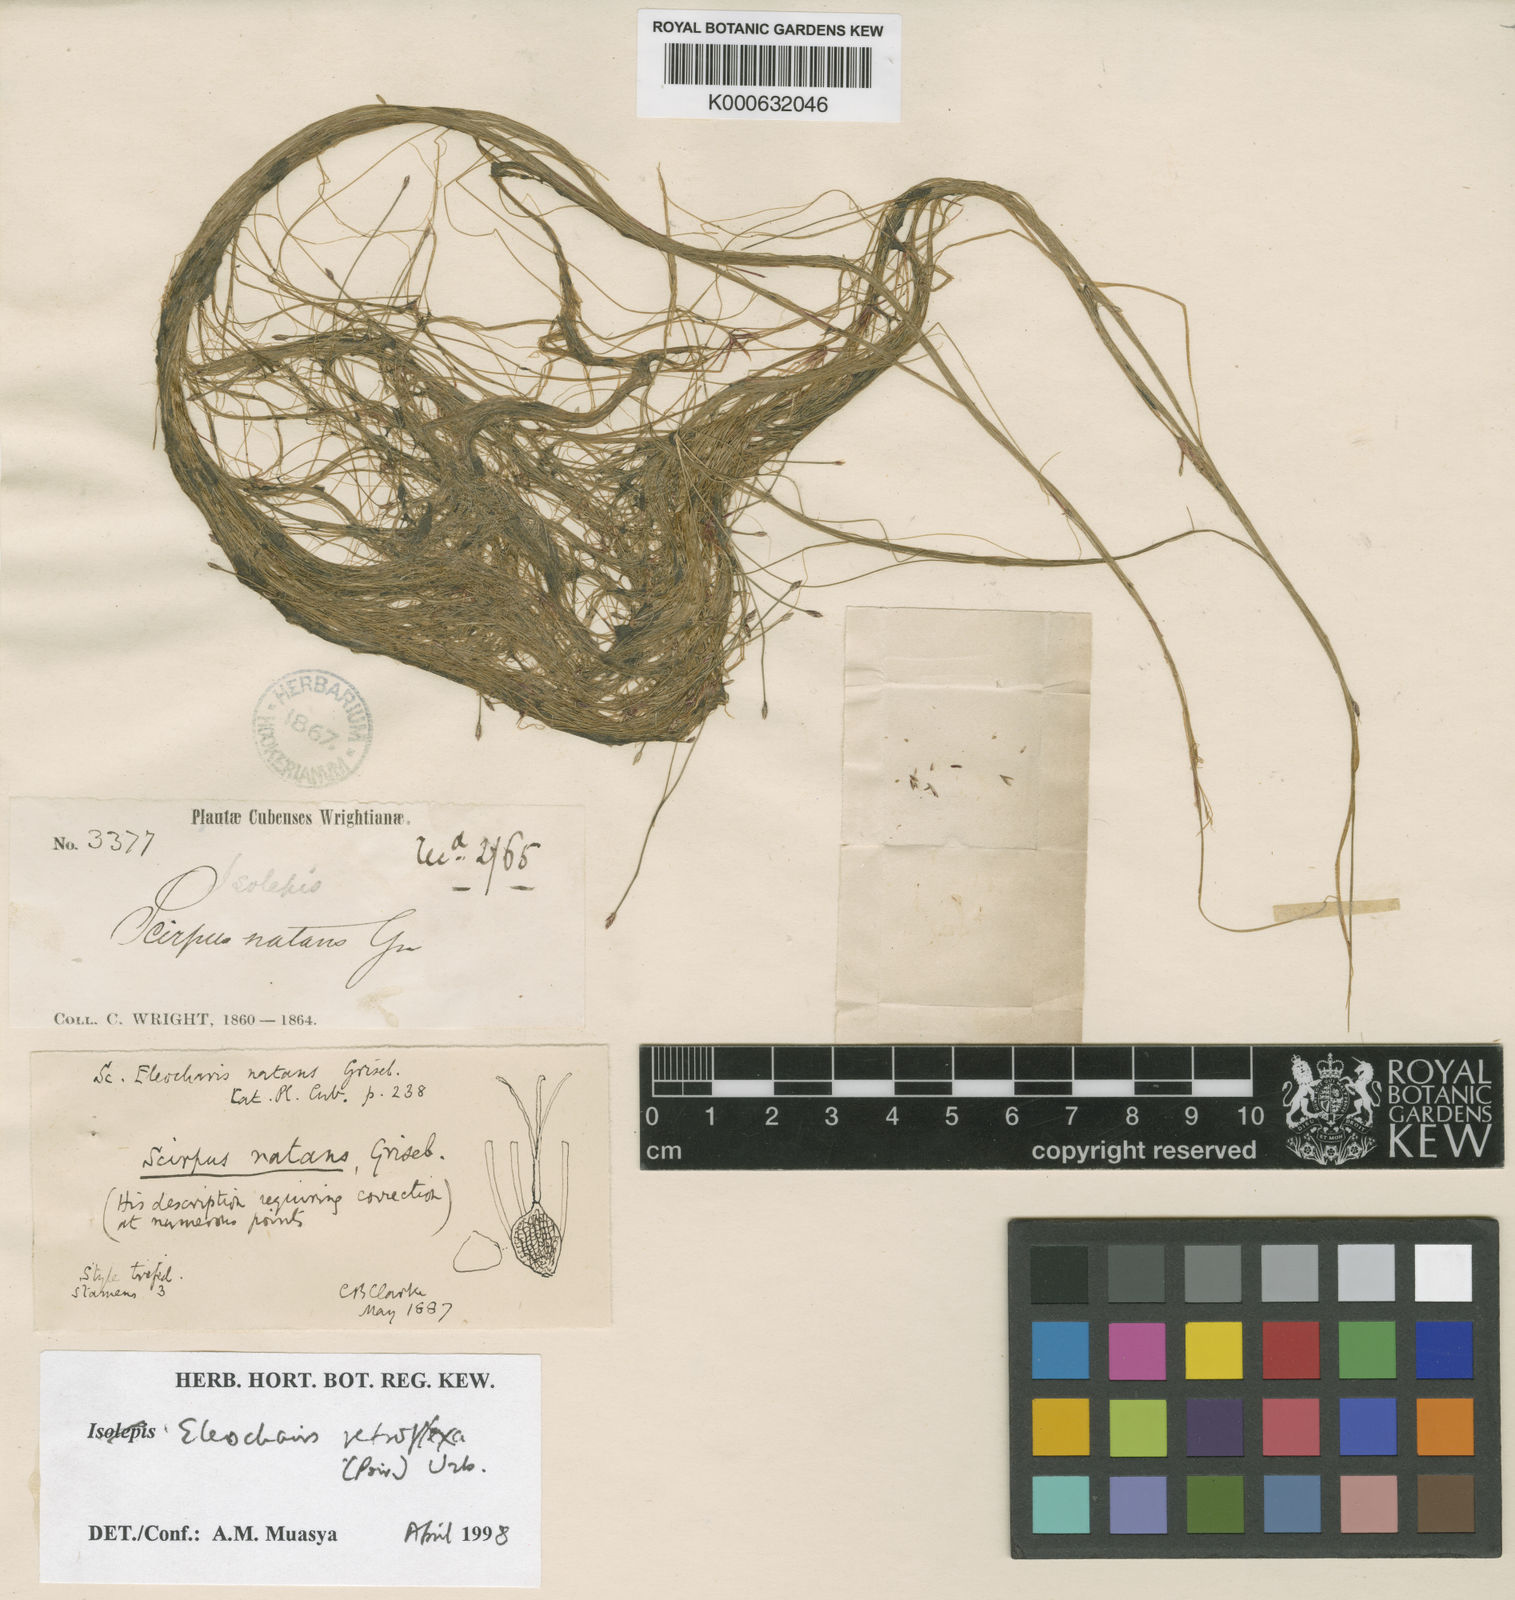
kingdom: Plantae
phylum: Tracheophyta
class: Liliopsida
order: Poales
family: Cyperaceae
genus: Eleocharis
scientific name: Eleocharis retroflexa
